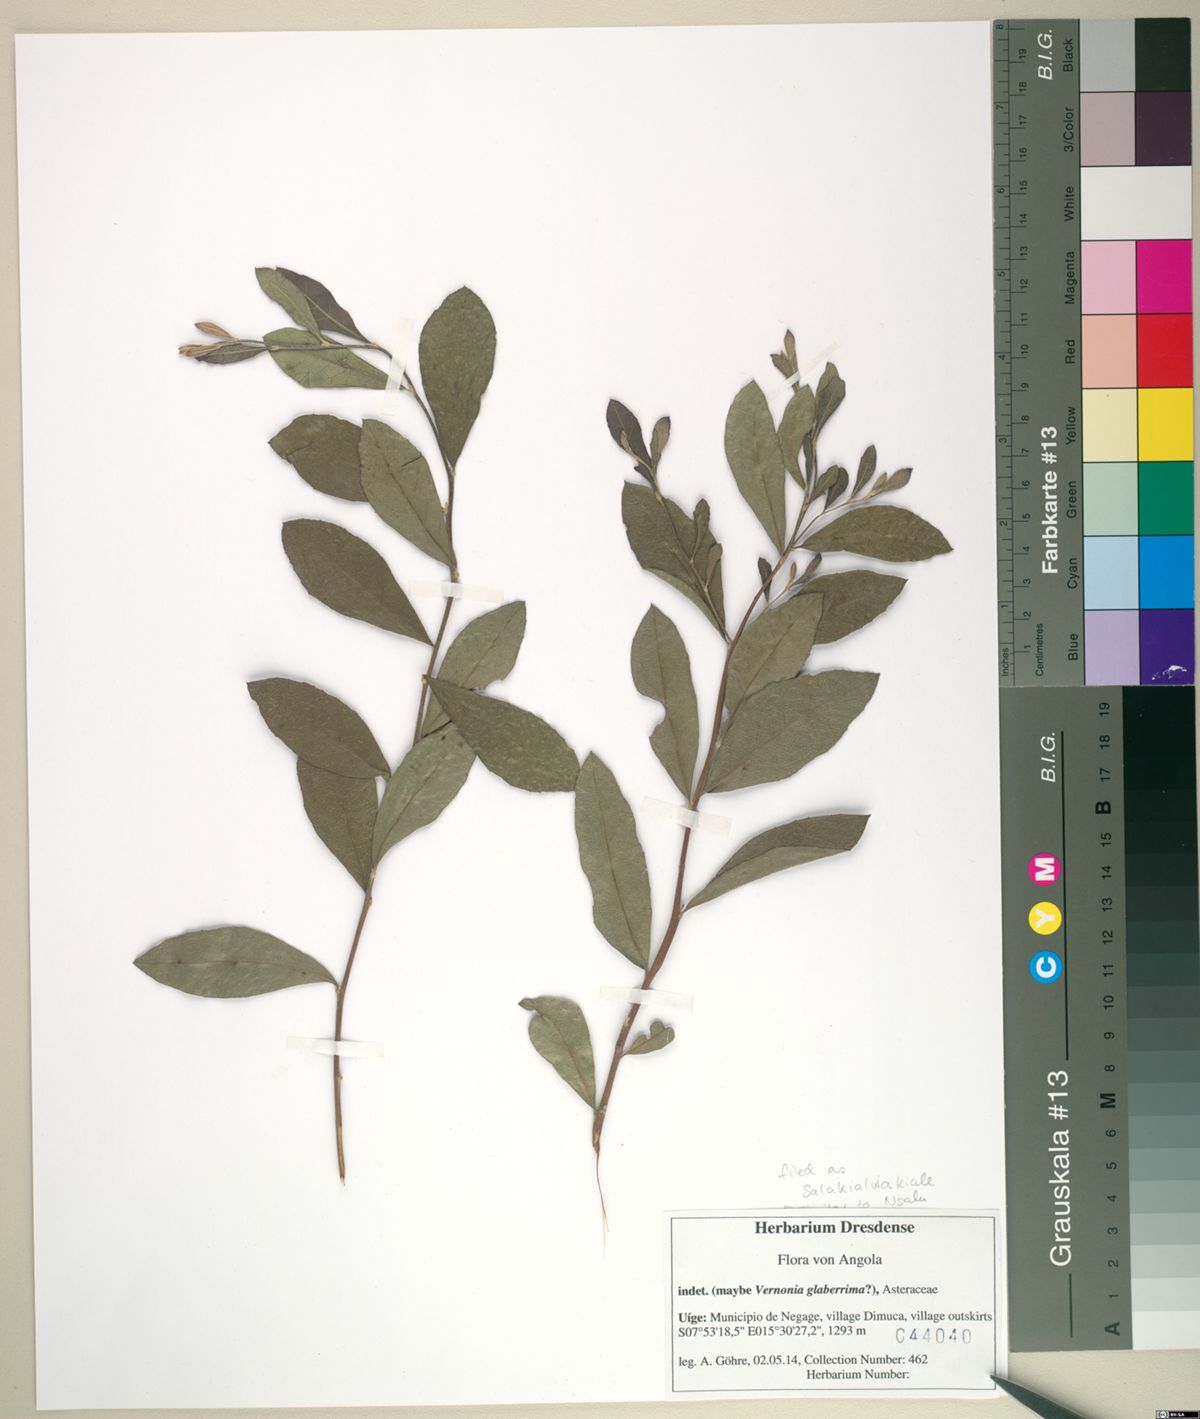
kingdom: Plantae
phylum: Tracheophyta
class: Magnoliopsida
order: Asterales
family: Asteraceae
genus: Gymnanthemum
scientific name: Gymnanthemum glaberrimum
